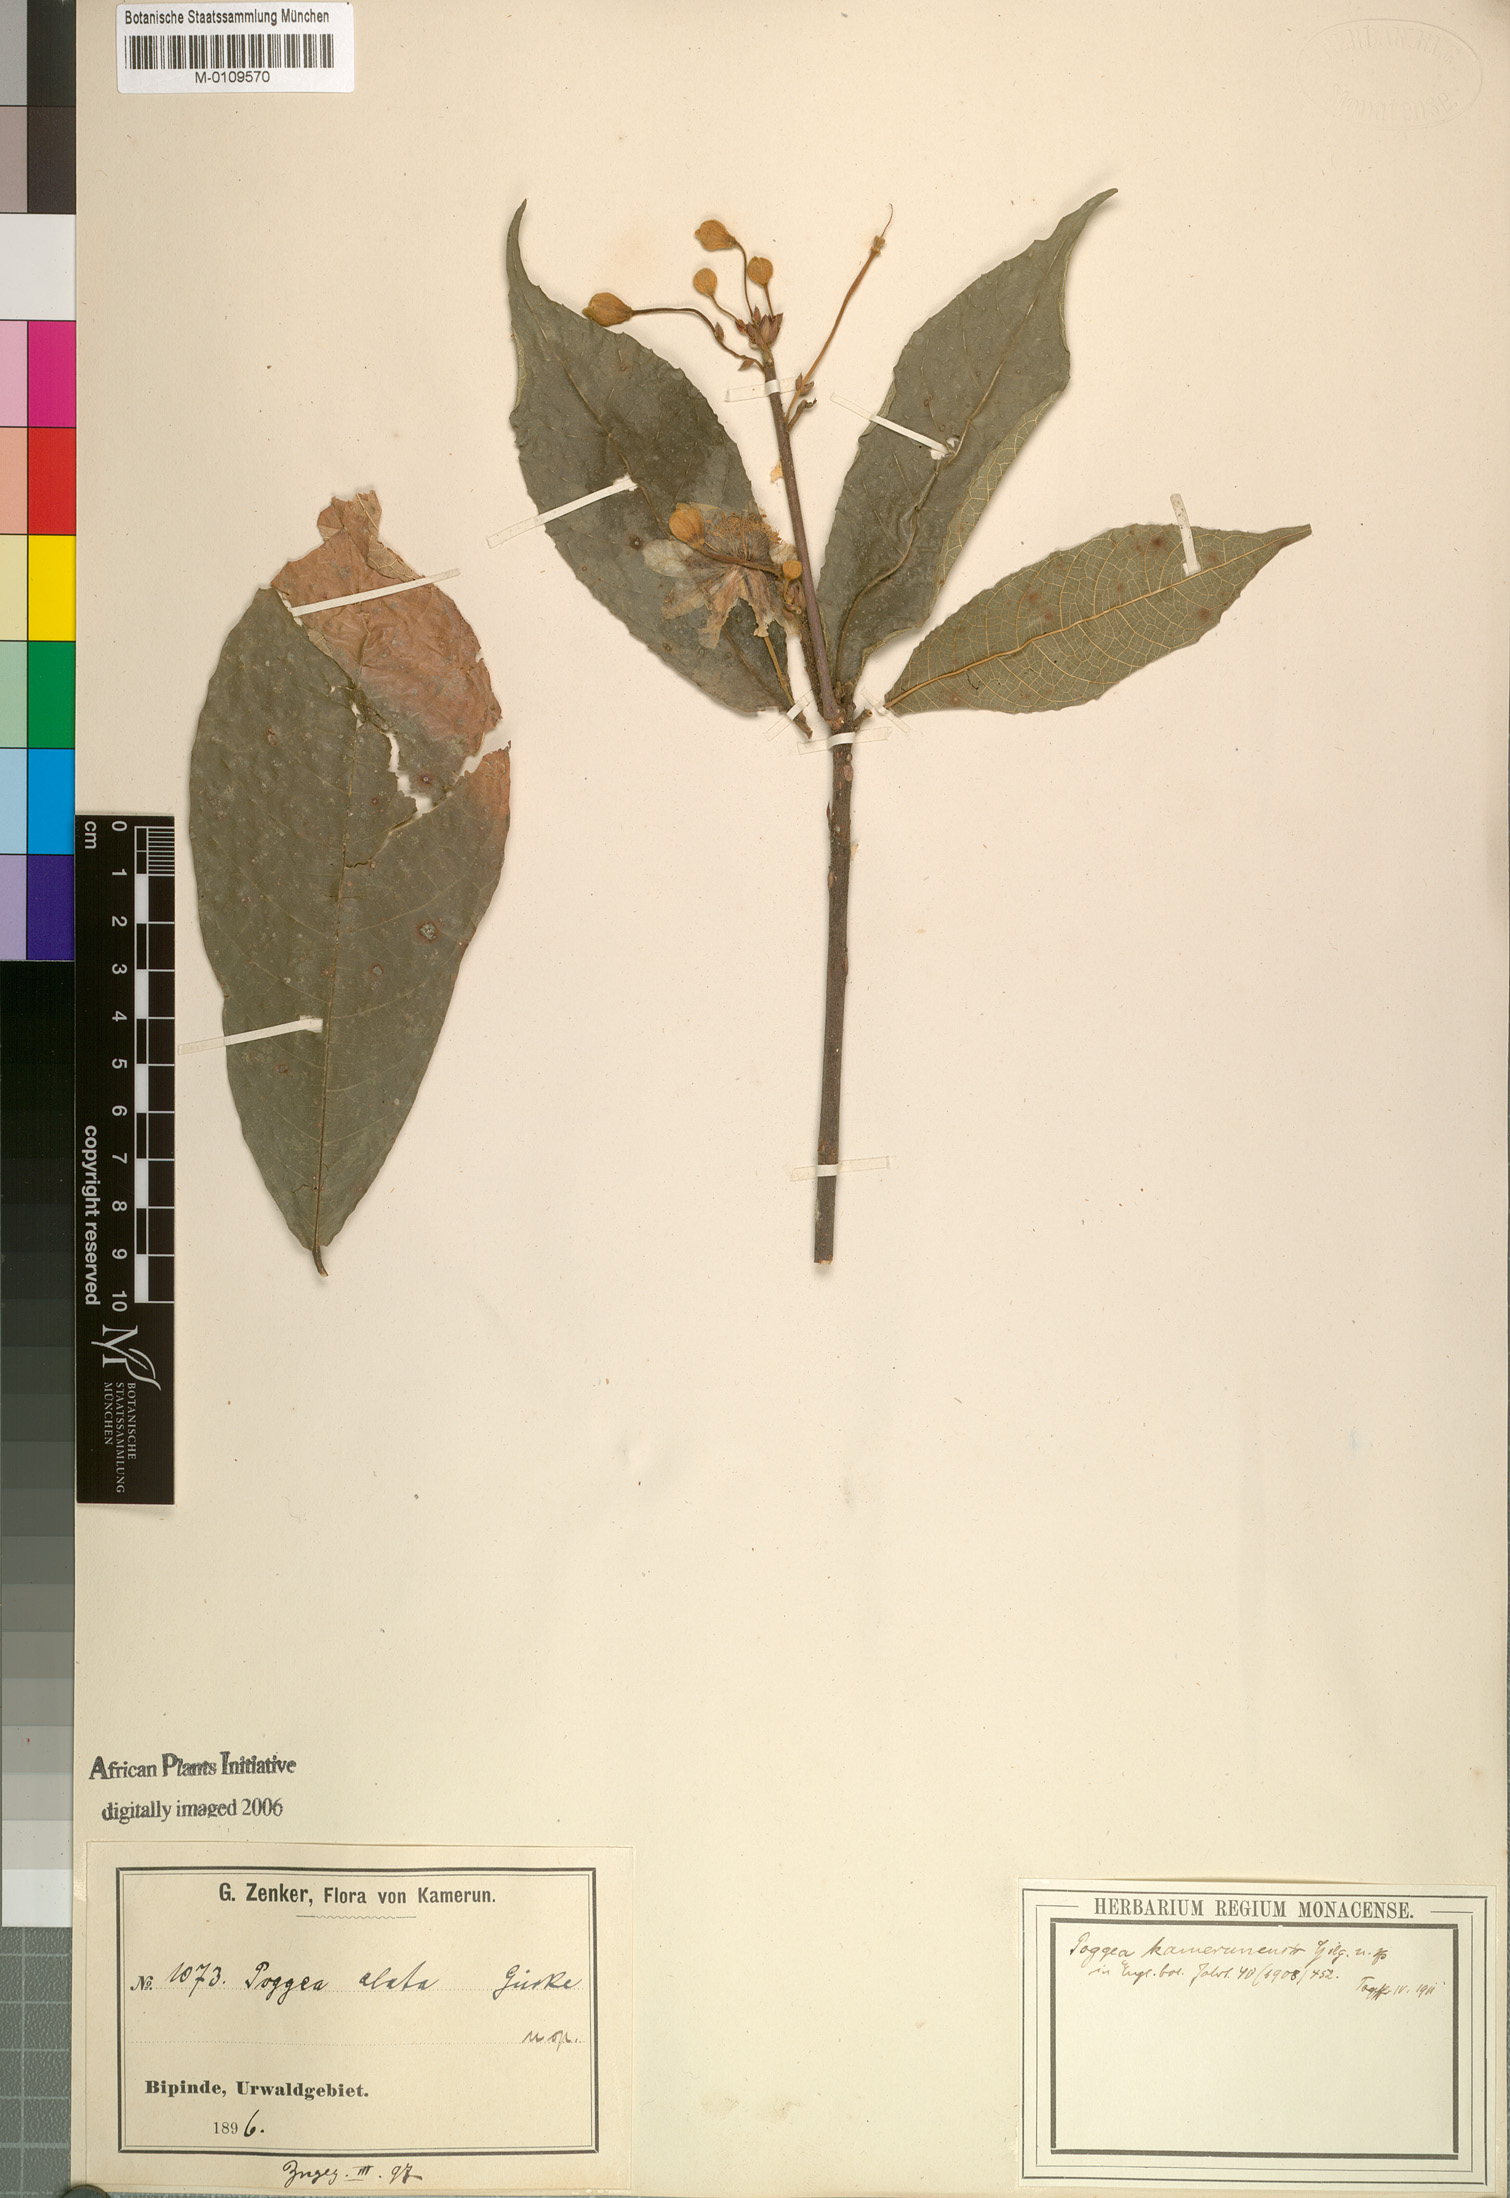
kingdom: Plantae
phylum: Tracheophyta
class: Magnoliopsida
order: Malpighiales
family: Achariaceae
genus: Poggea
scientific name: Poggea alata
